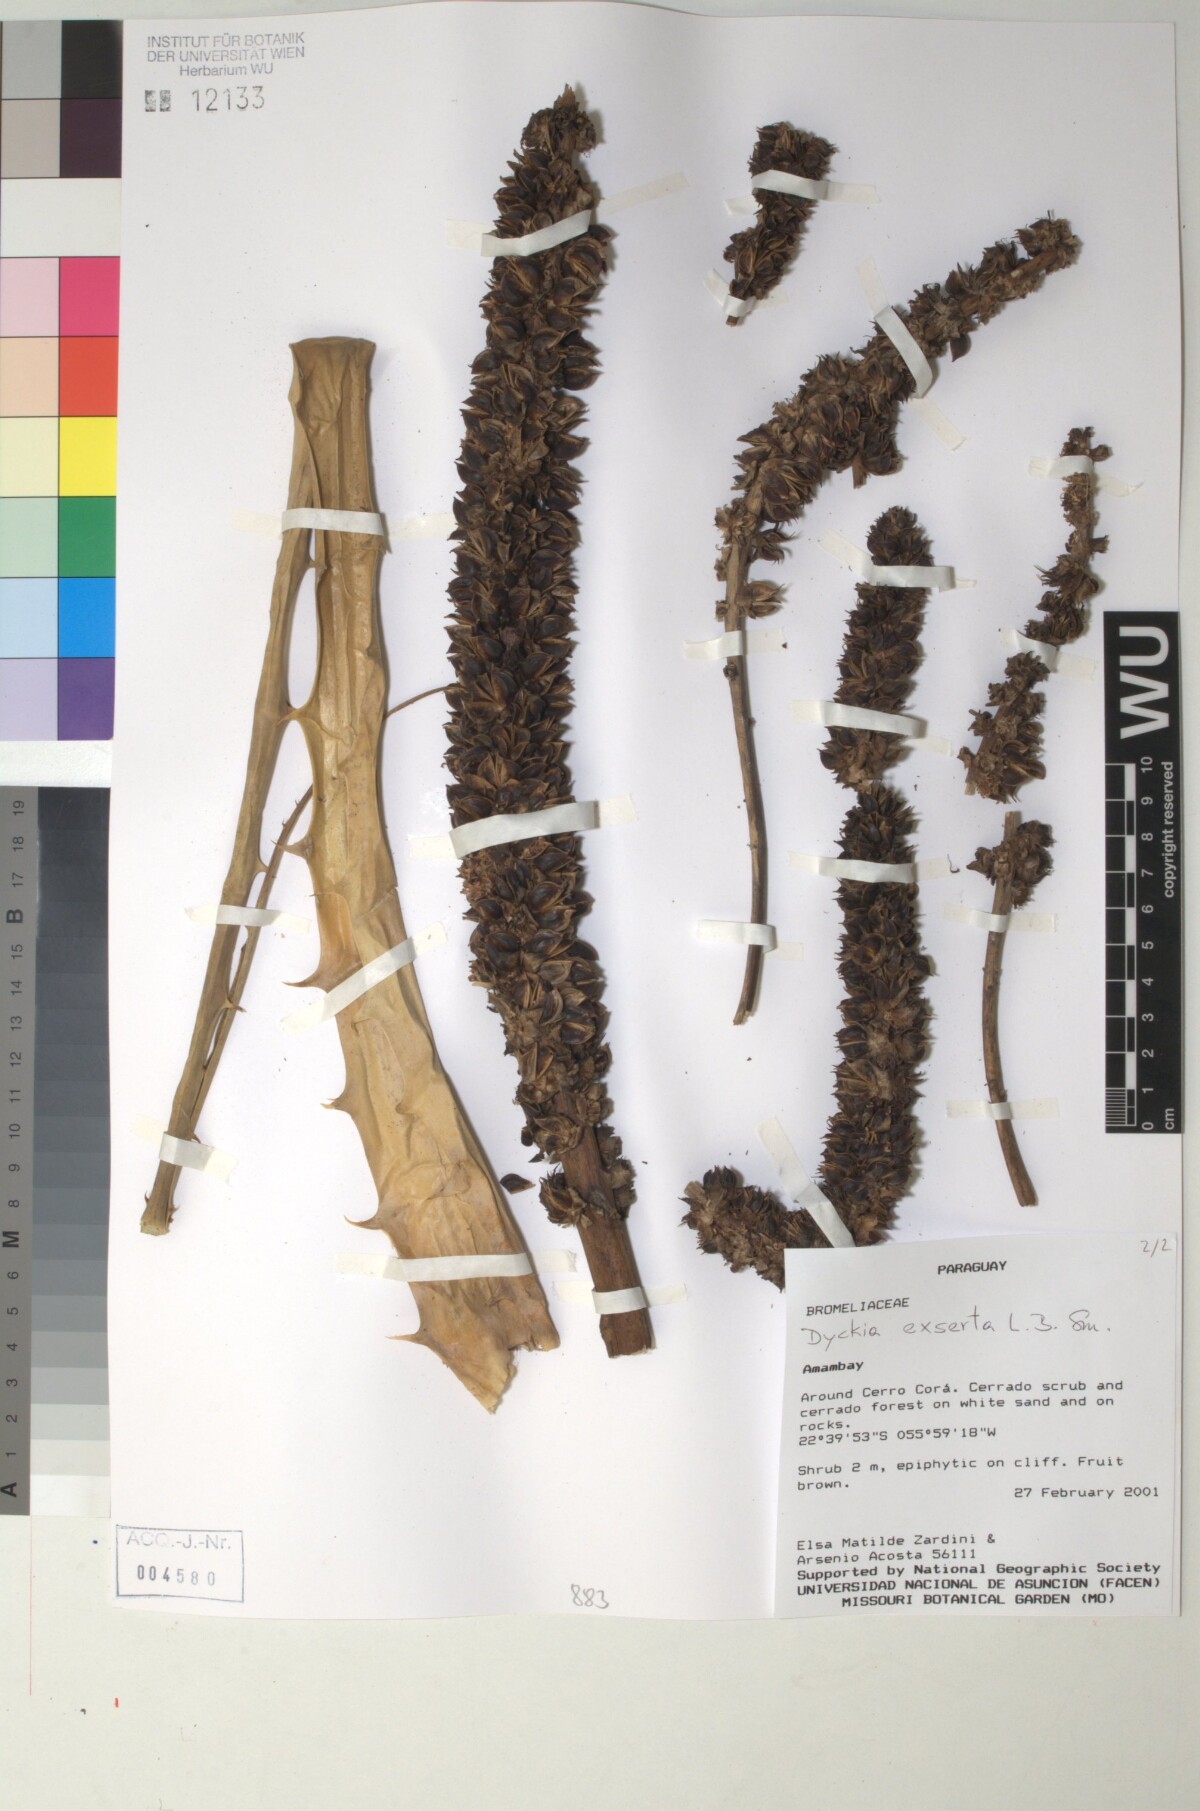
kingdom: Plantae
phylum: Tracheophyta
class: Liliopsida
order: Poales
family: Bromeliaceae
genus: Dyckia
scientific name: Dyckia exserta
